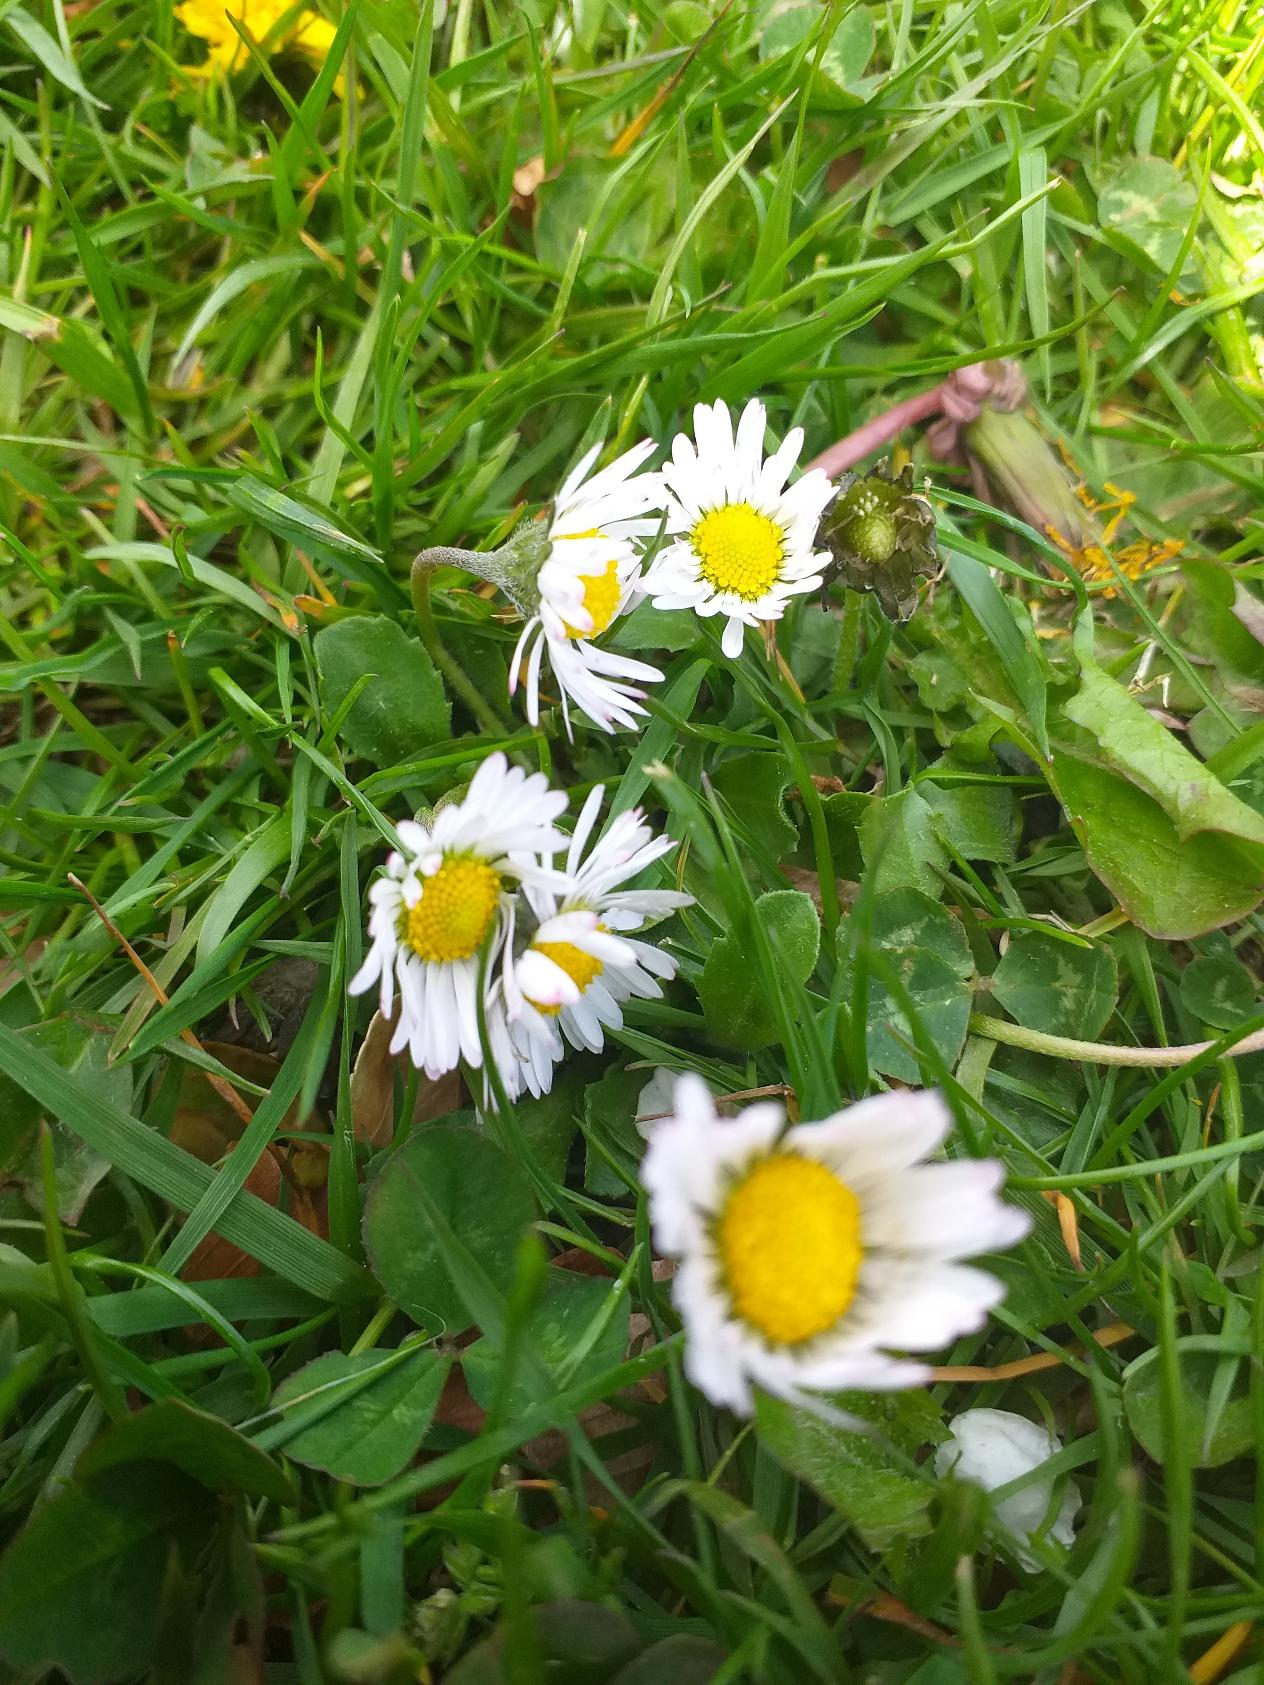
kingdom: Plantae
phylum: Tracheophyta
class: Magnoliopsida
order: Asterales
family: Asteraceae
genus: Bellis
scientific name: Bellis perennis
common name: Tusindfryd
